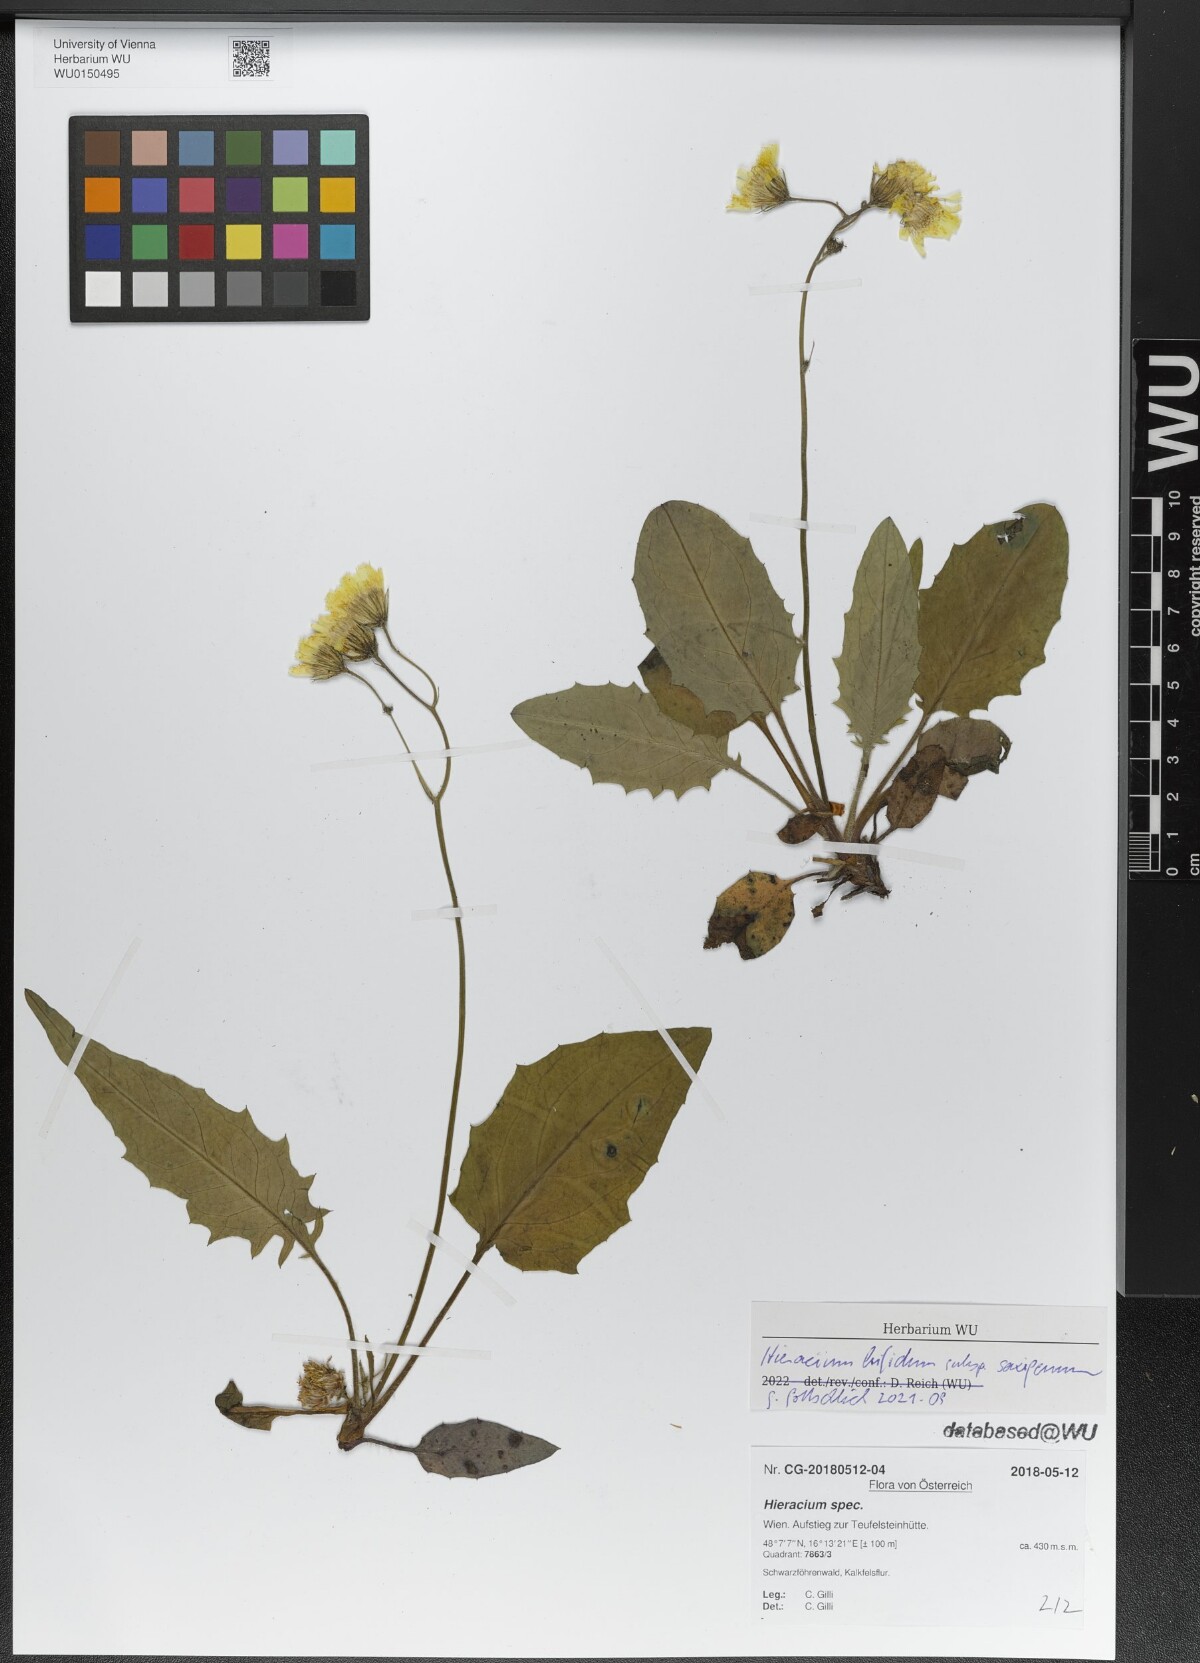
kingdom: Plantae
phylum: Tracheophyta
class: Magnoliopsida
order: Asterales
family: Asteraceae
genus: Hieracium
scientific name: Hieracium bifidum
